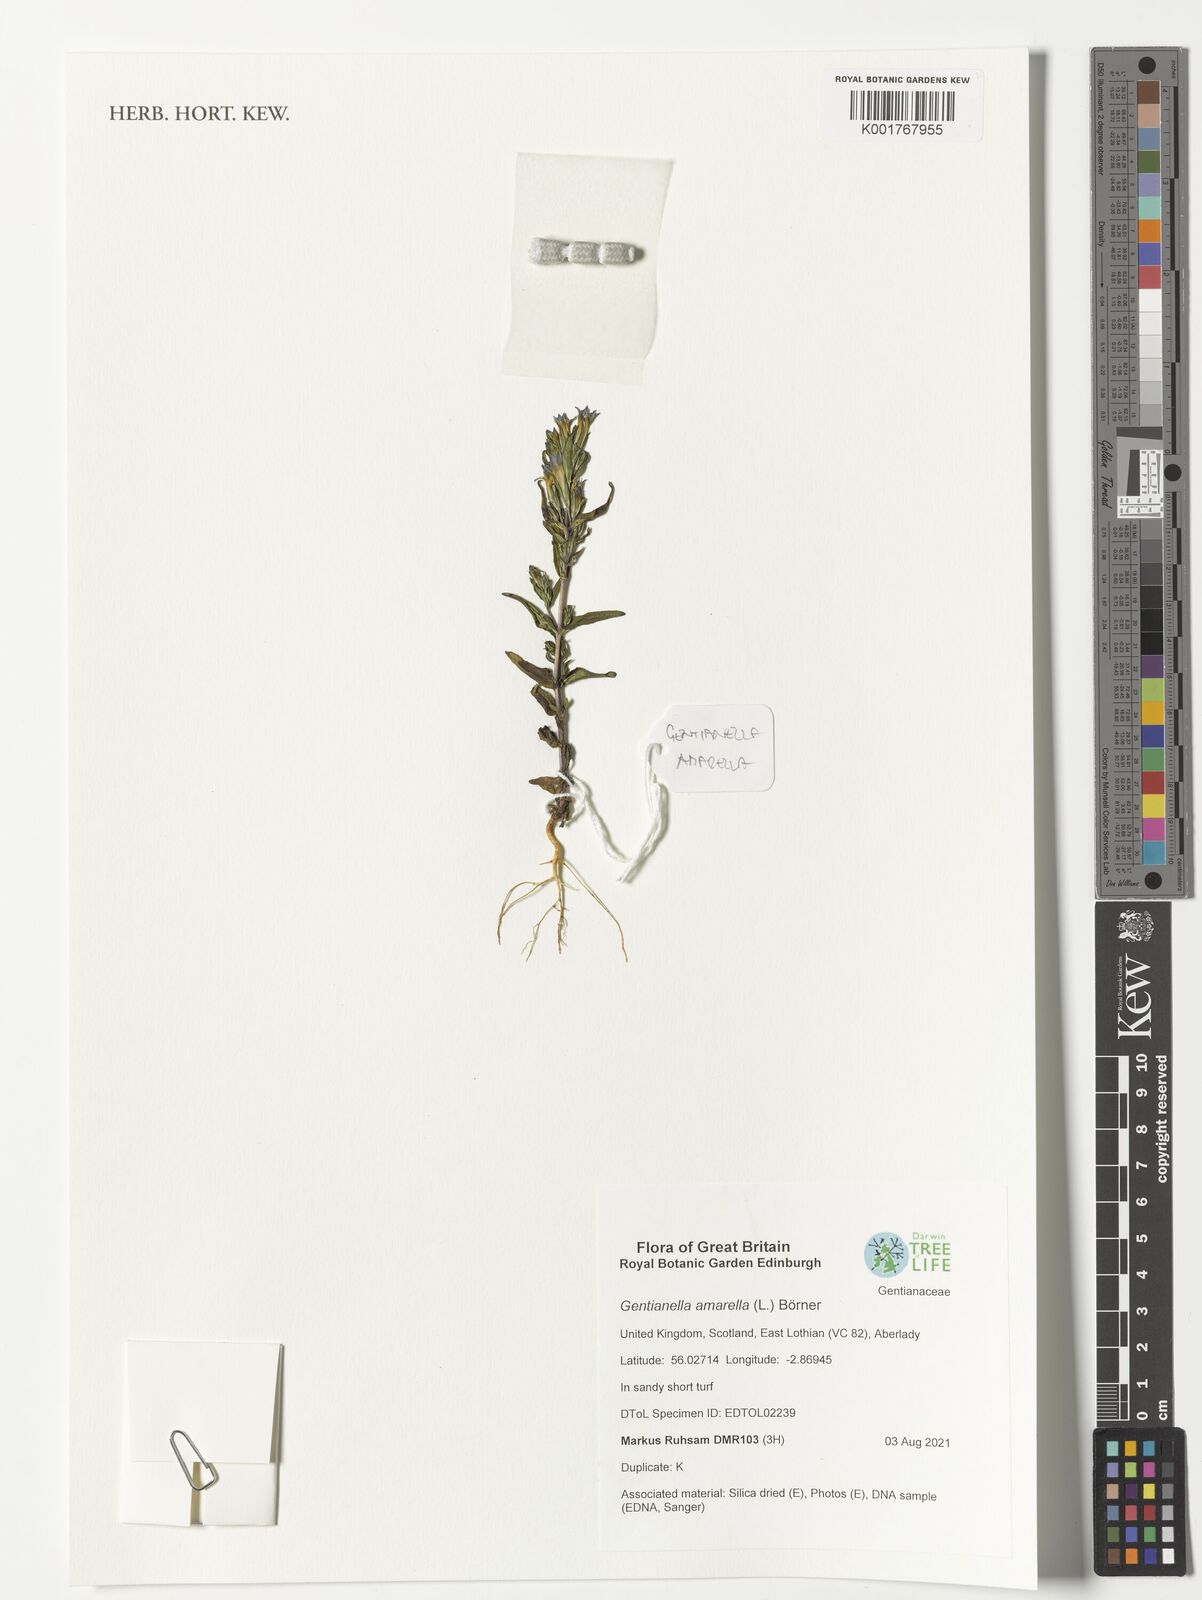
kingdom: Plantae
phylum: Tracheophyta
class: Magnoliopsida
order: Gentianales
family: Gentianaceae
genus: Gentianella
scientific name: Gentianella amarella
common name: Autumn gentian
